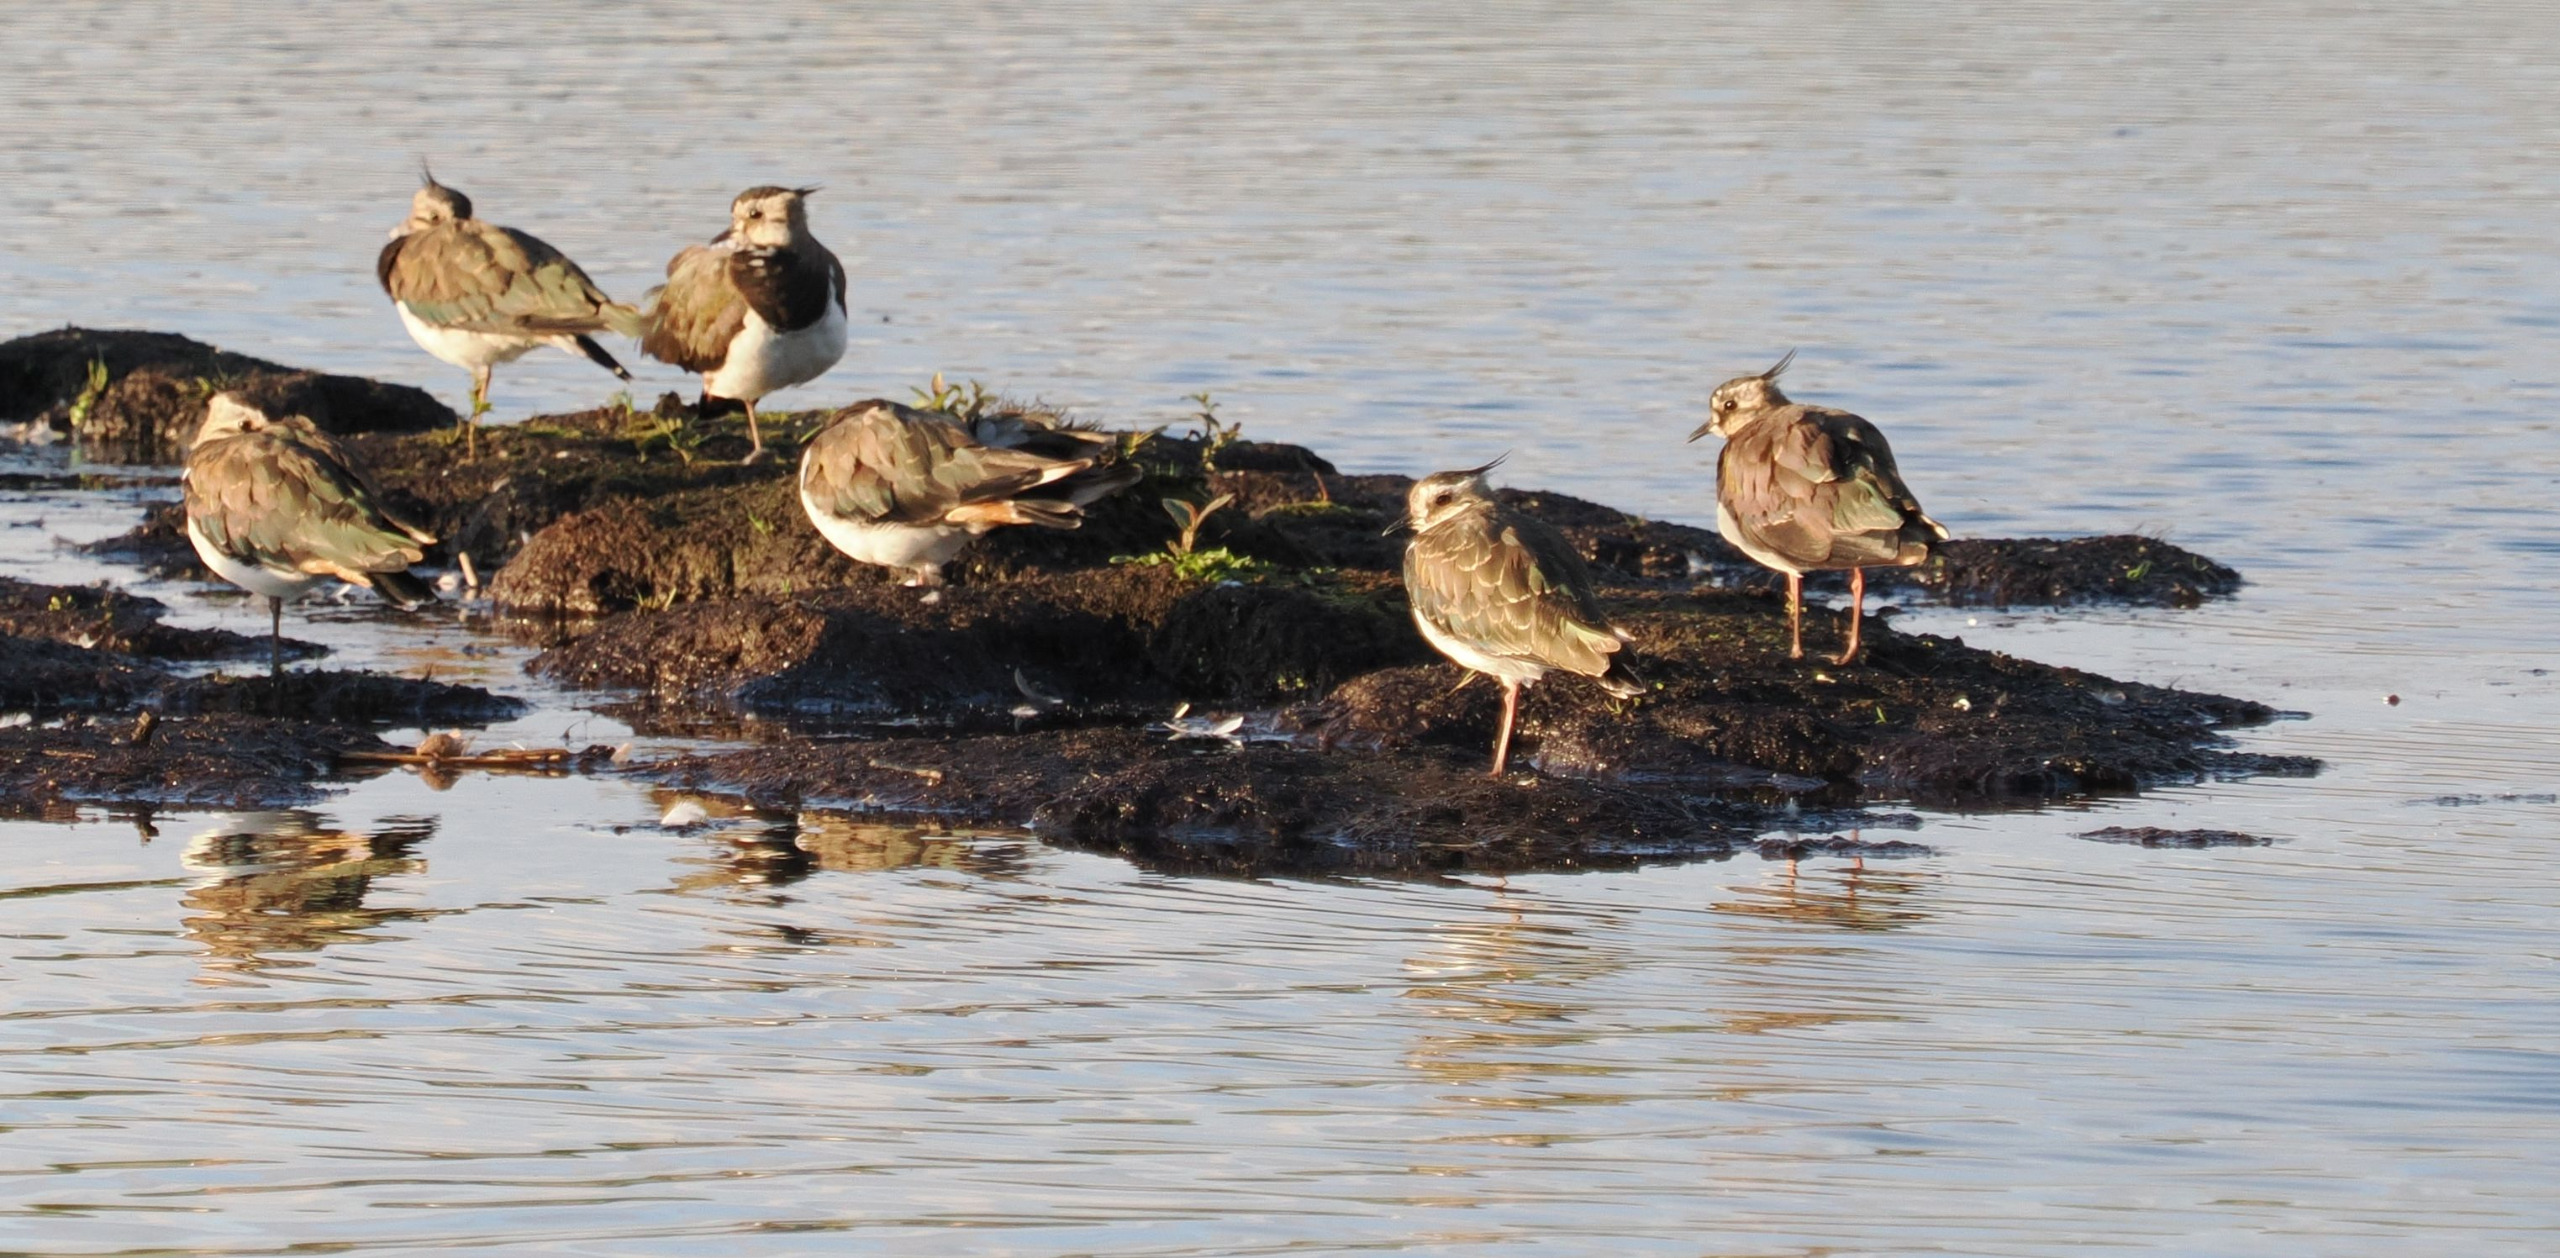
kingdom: Animalia
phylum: Chordata
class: Aves
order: Charadriiformes
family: Charadriidae
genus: Vanellus
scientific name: Vanellus vanellus
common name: Vibe
